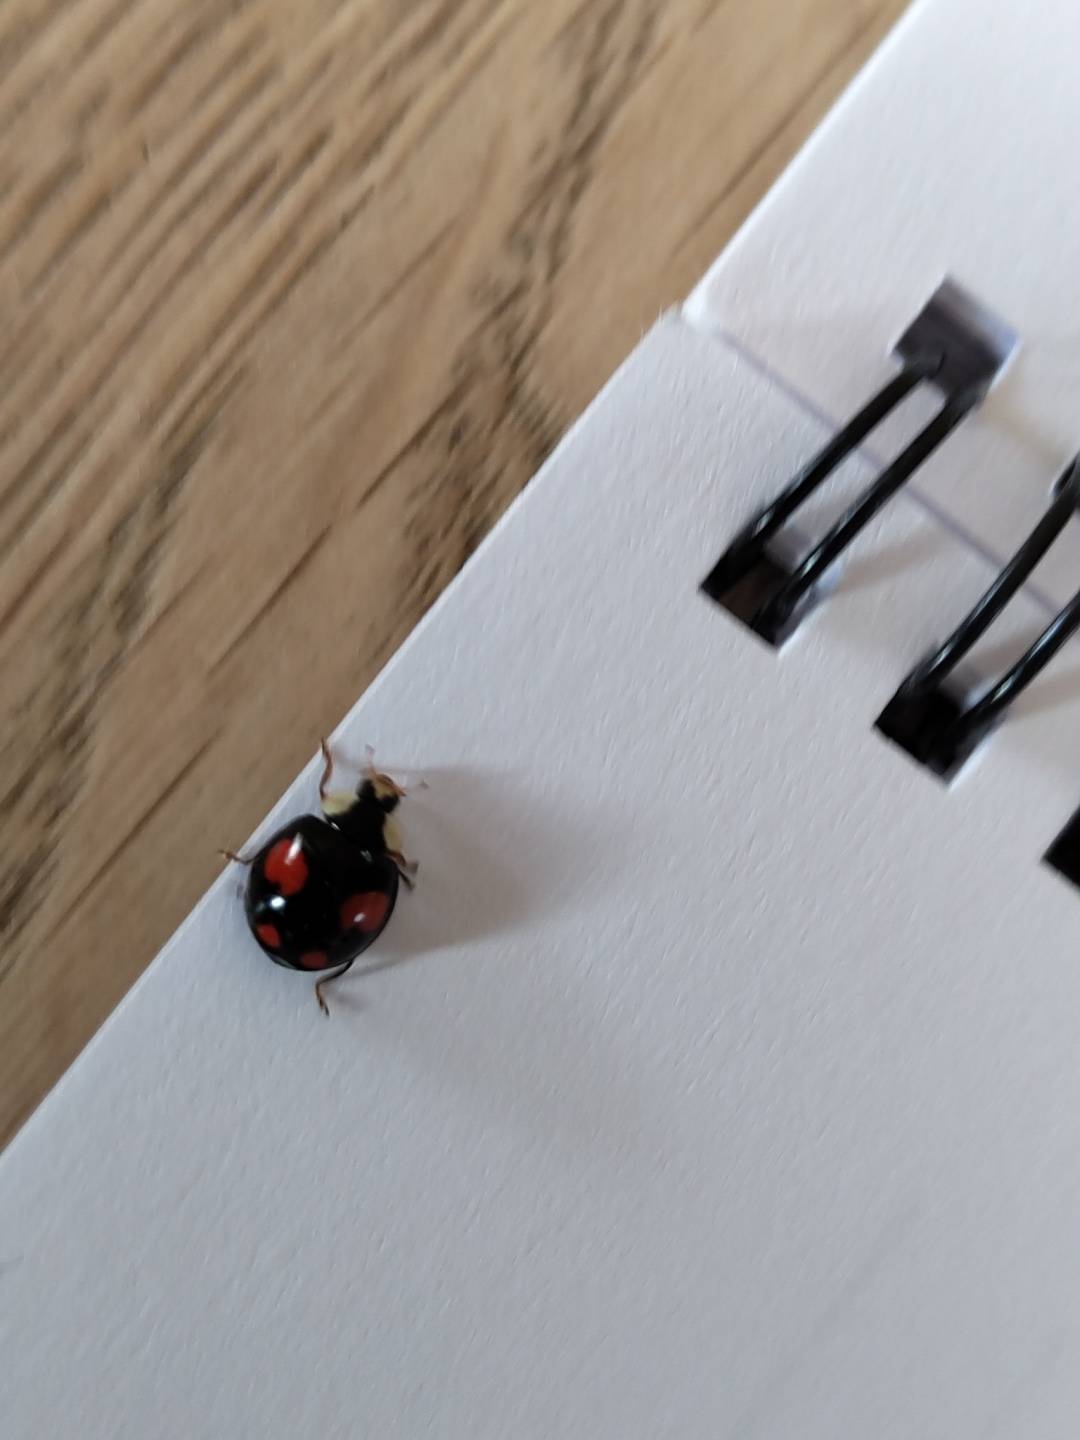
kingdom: Animalia
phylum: Arthropoda
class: Insecta
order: Coleoptera
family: Coccinellidae
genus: Harmonia
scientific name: Harmonia axyridis
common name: Harlekinmariehøne
